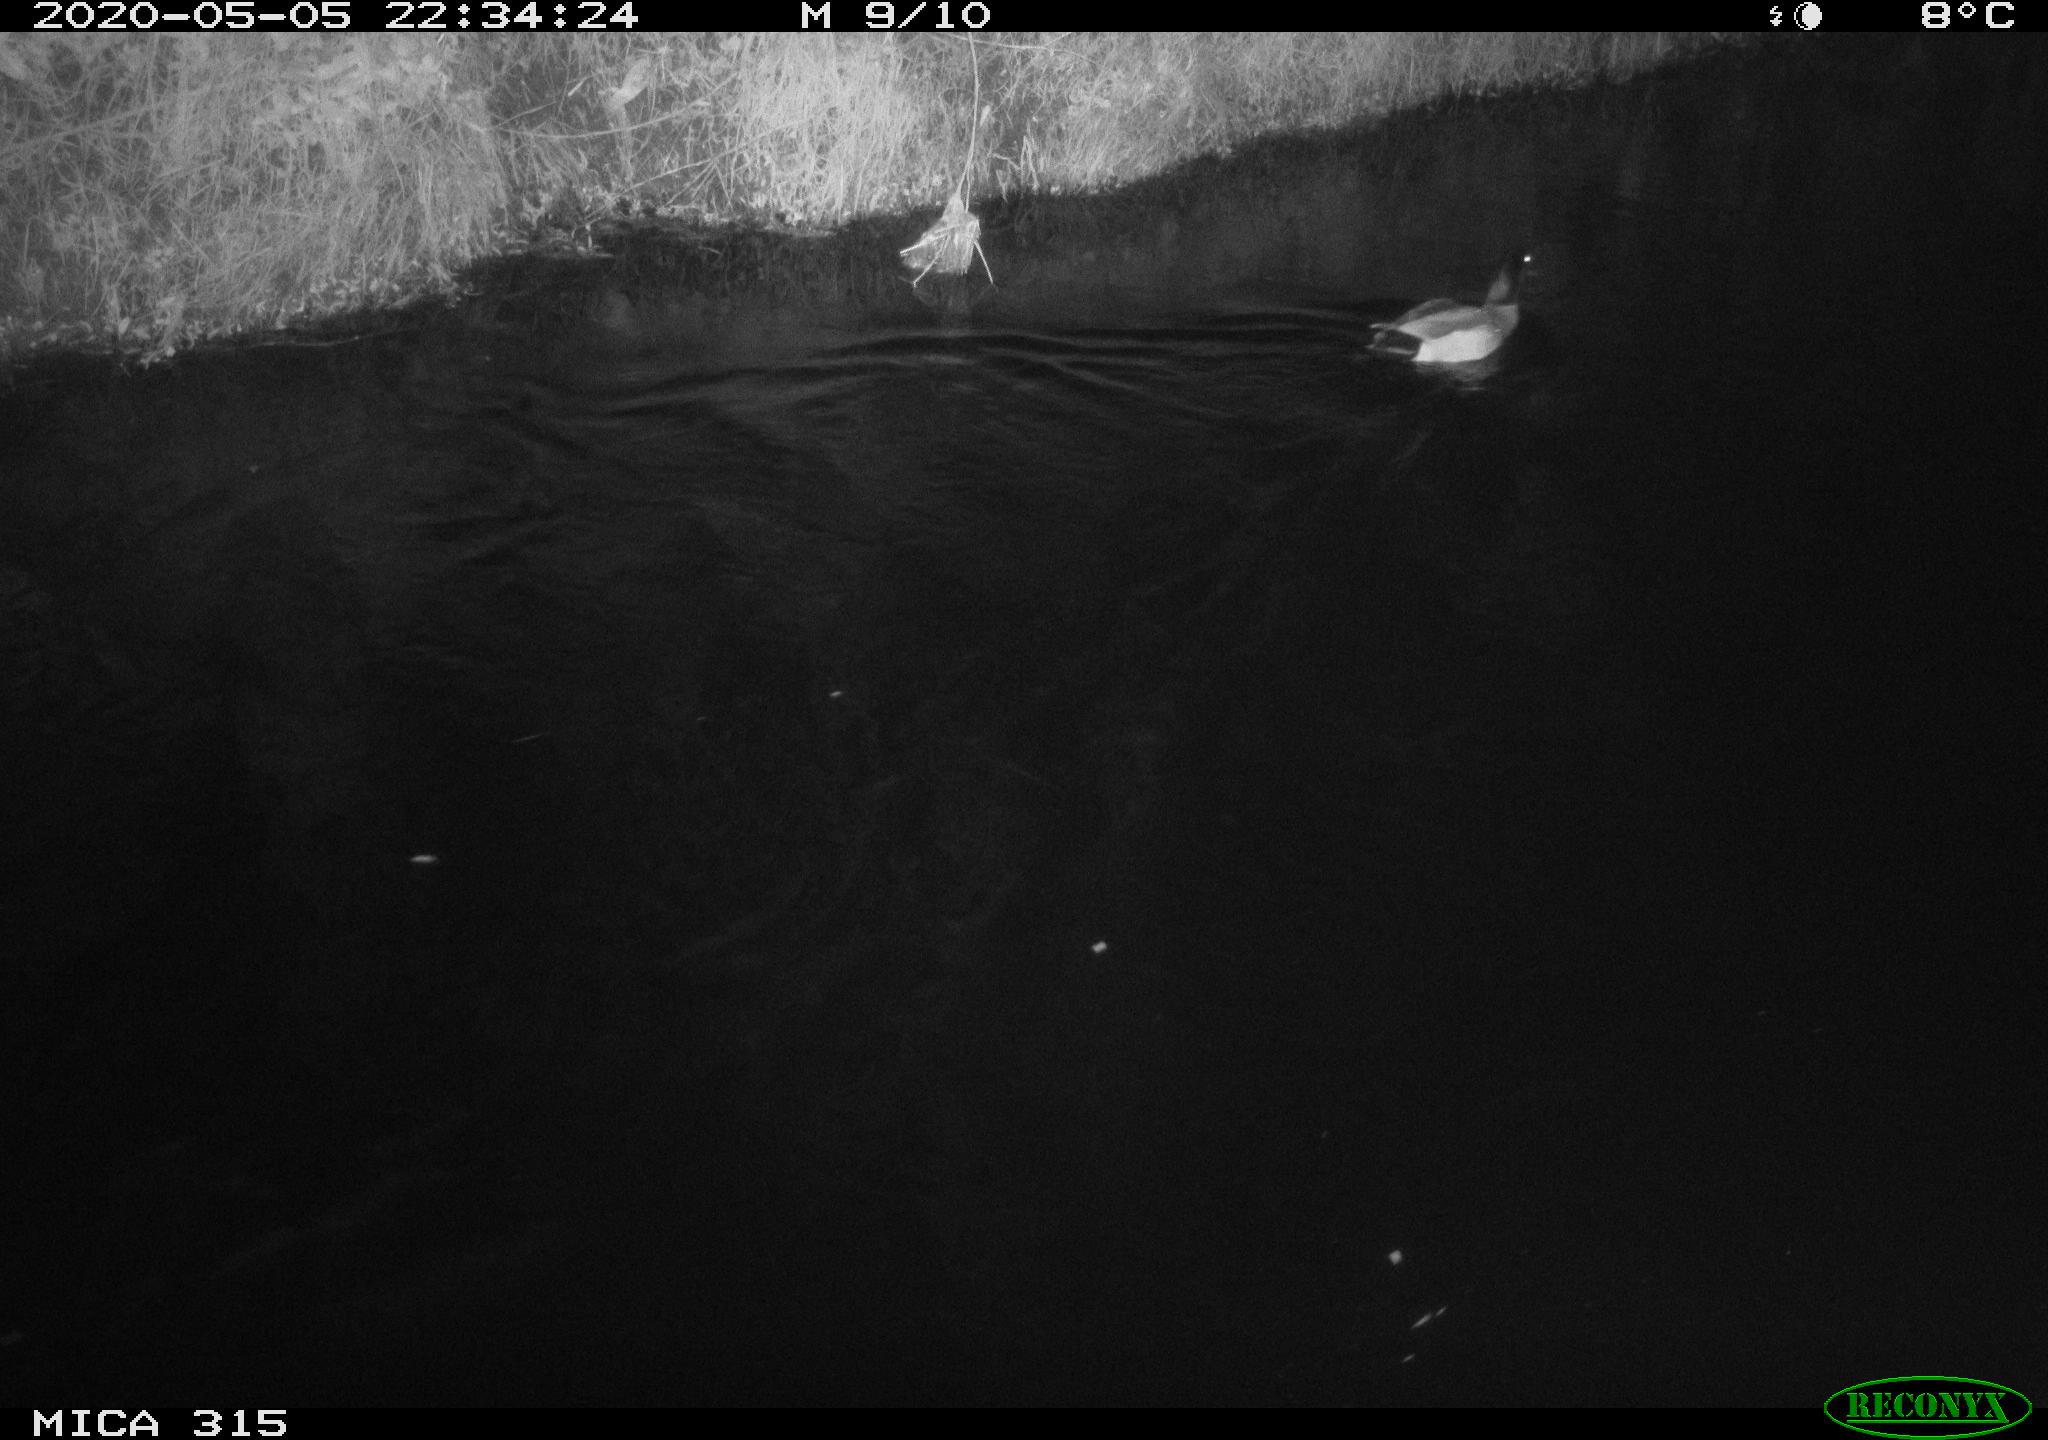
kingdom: Animalia
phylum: Chordata
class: Aves
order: Anseriformes
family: Anatidae
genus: Anas
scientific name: Anas platyrhynchos
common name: Mallard
